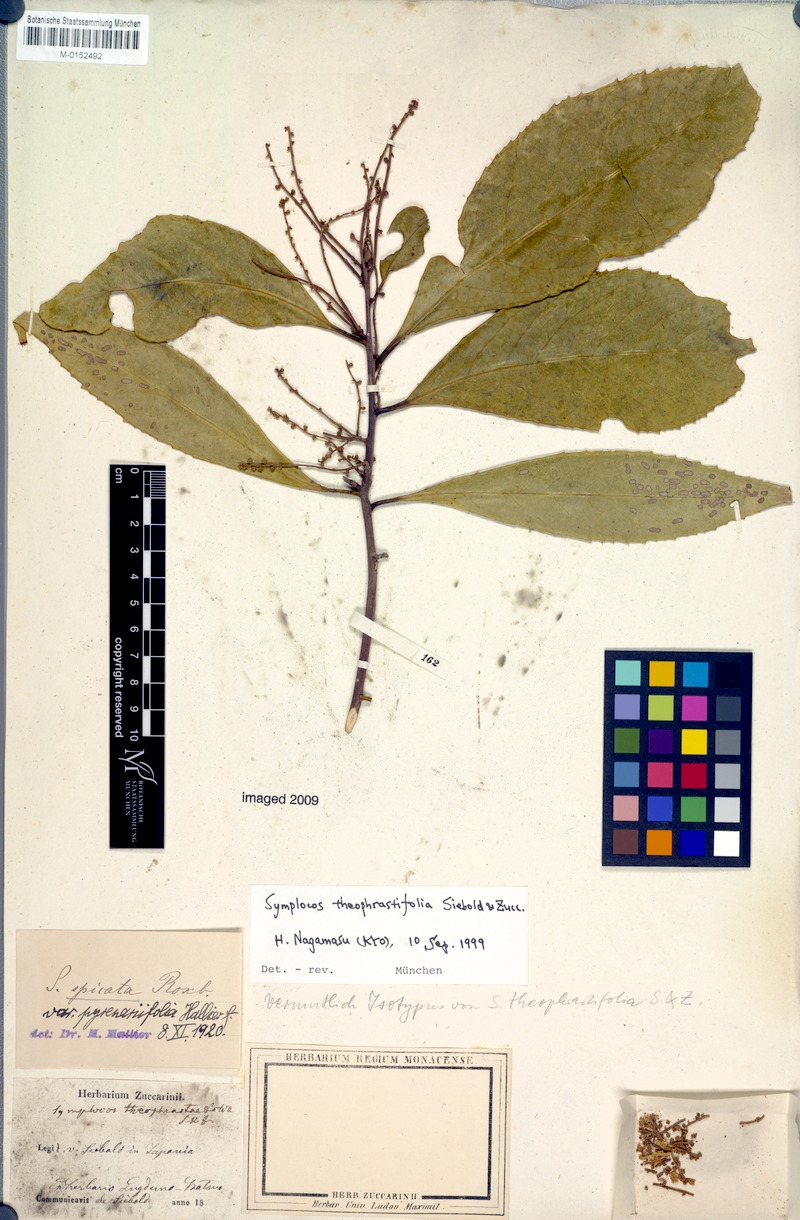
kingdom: Plantae
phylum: Tracheophyta
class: Magnoliopsida
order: Ericales
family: Symplocaceae
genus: Symplocos
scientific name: Symplocos acuminata
